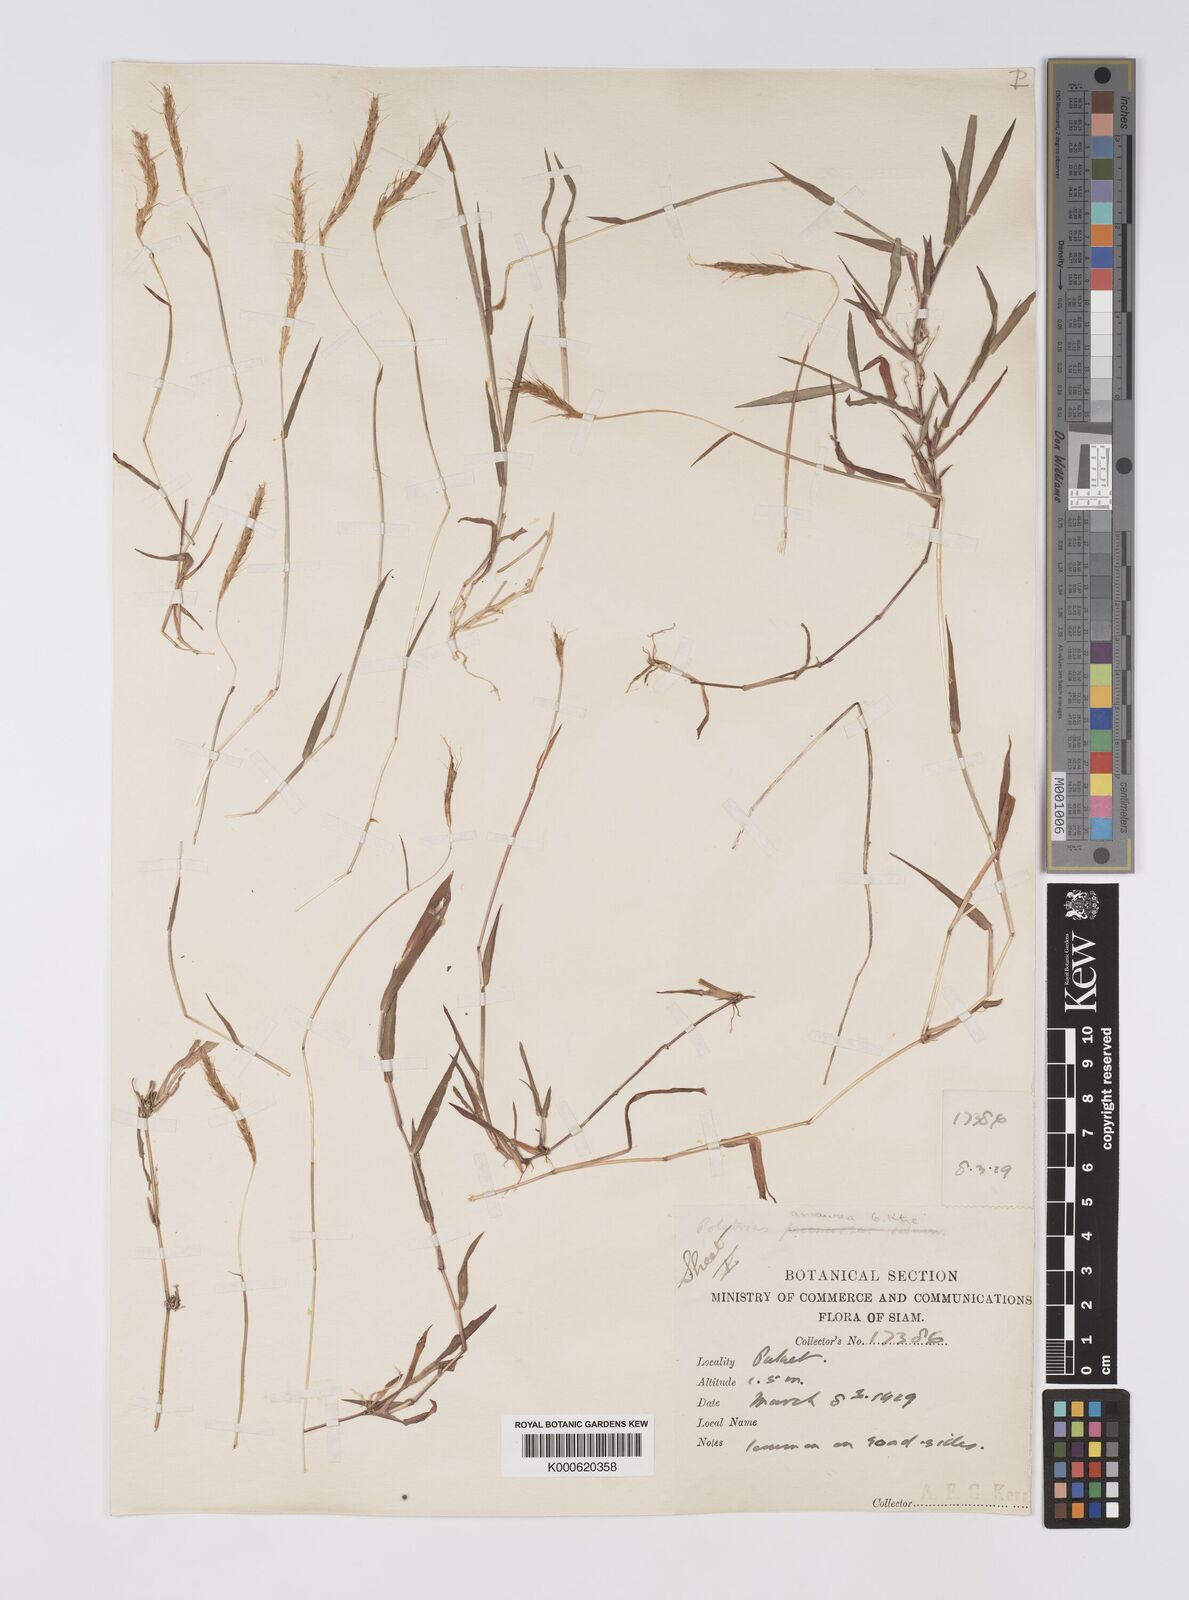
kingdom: Plantae
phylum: Tracheophyta
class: Liliopsida
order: Poales
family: Poaceae
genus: Polytrias
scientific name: Polytrias indica
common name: Indian murainagrass
